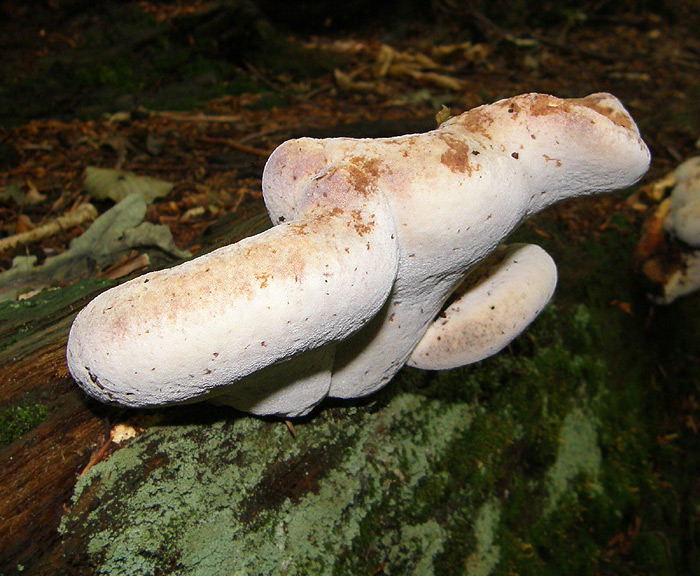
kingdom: Fungi
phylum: Basidiomycota
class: Agaricomycetes
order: Polyporales
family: Fomitopsidaceae
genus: Buglossoporus
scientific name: Buglossoporus quercinus
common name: egetunge
